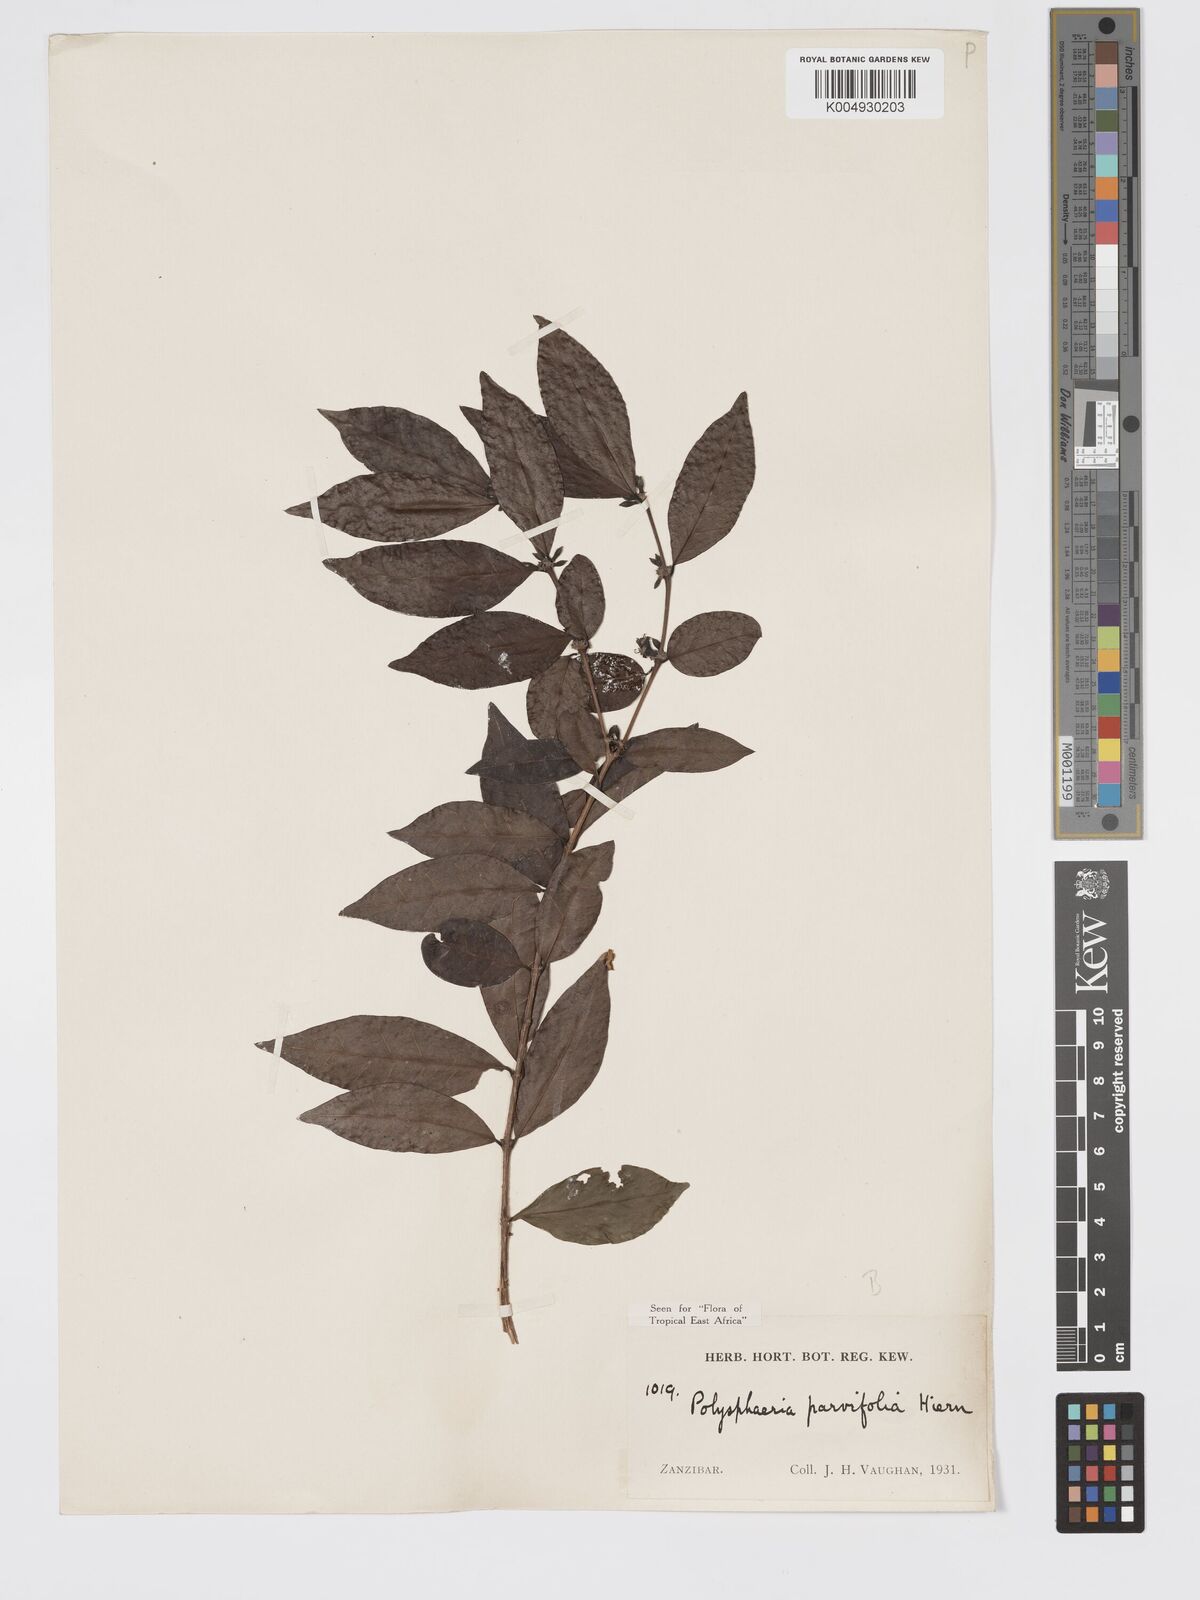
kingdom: Plantae
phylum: Tracheophyta
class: Magnoliopsida
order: Gentianales
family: Rubiaceae
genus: Polysphaeria
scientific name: Polysphaeria parvifolia
